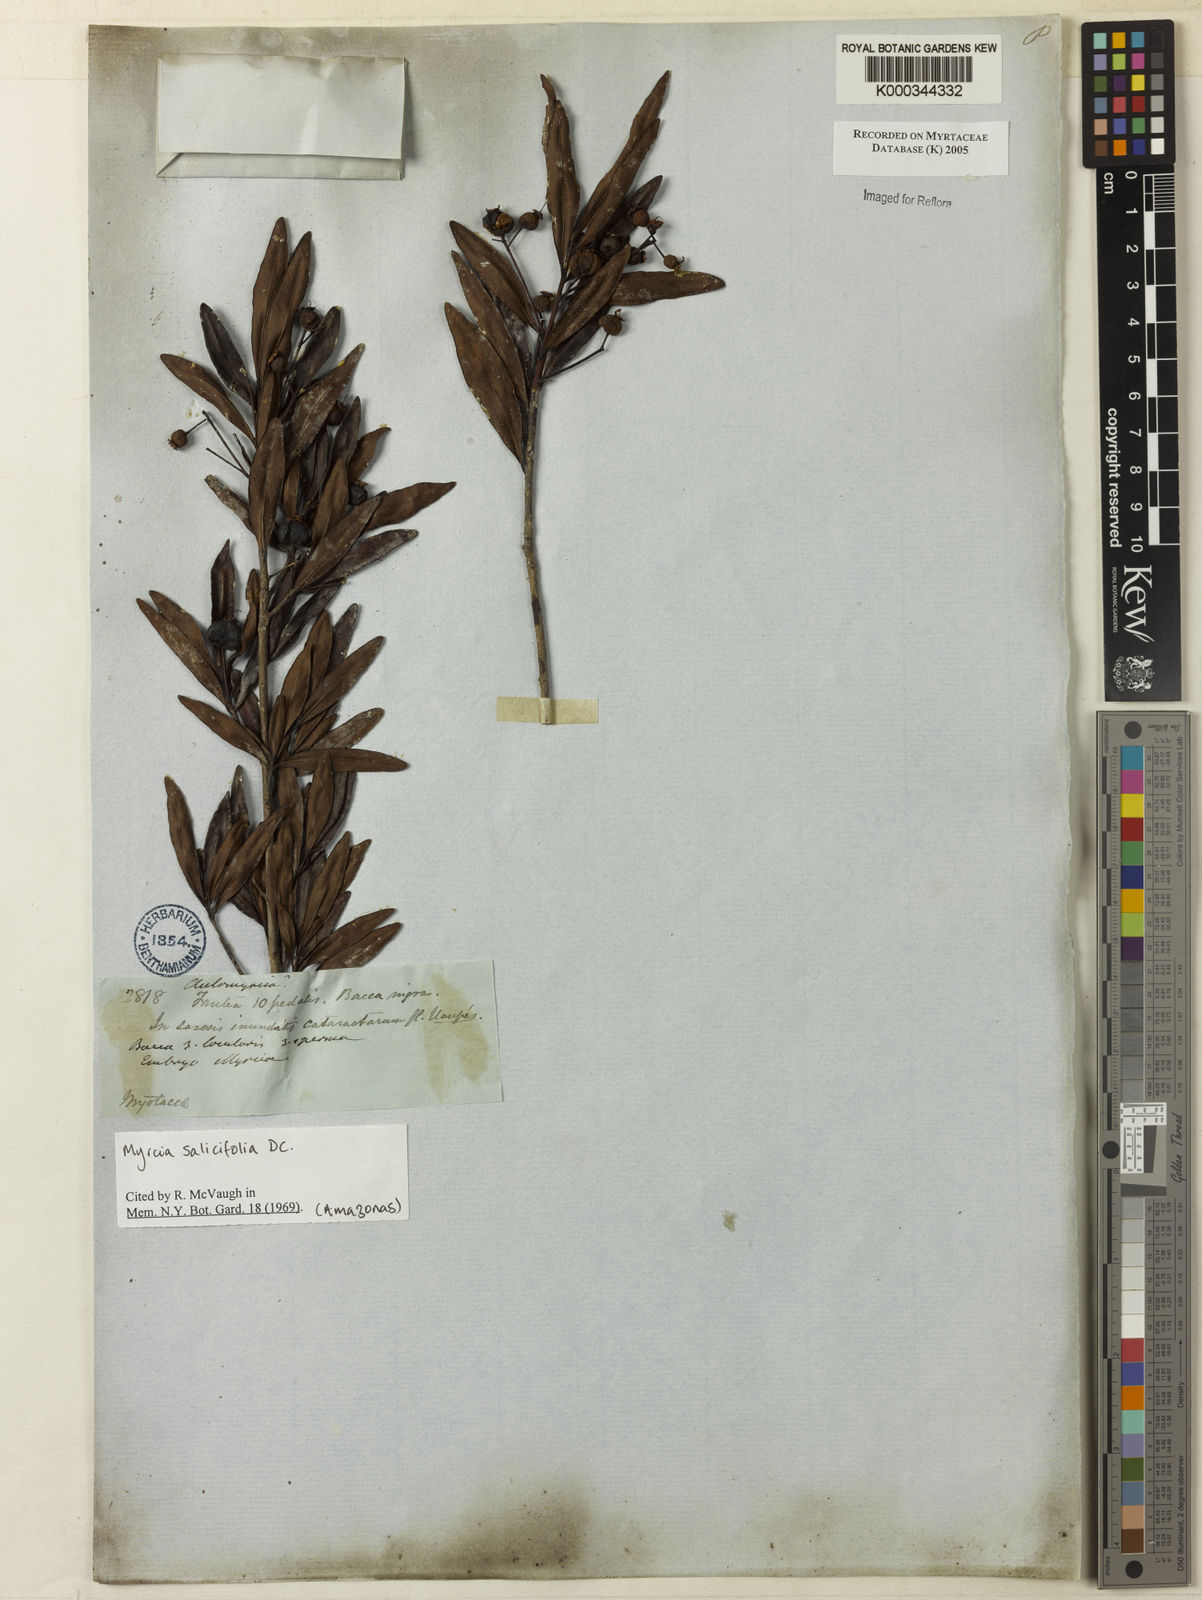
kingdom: Plantae
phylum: Tracheophyta
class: Magnoliopsida
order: Myrtales
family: Myrtaceae
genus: Myrcia
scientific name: Myrcia salicifolia
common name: Insulin plant
